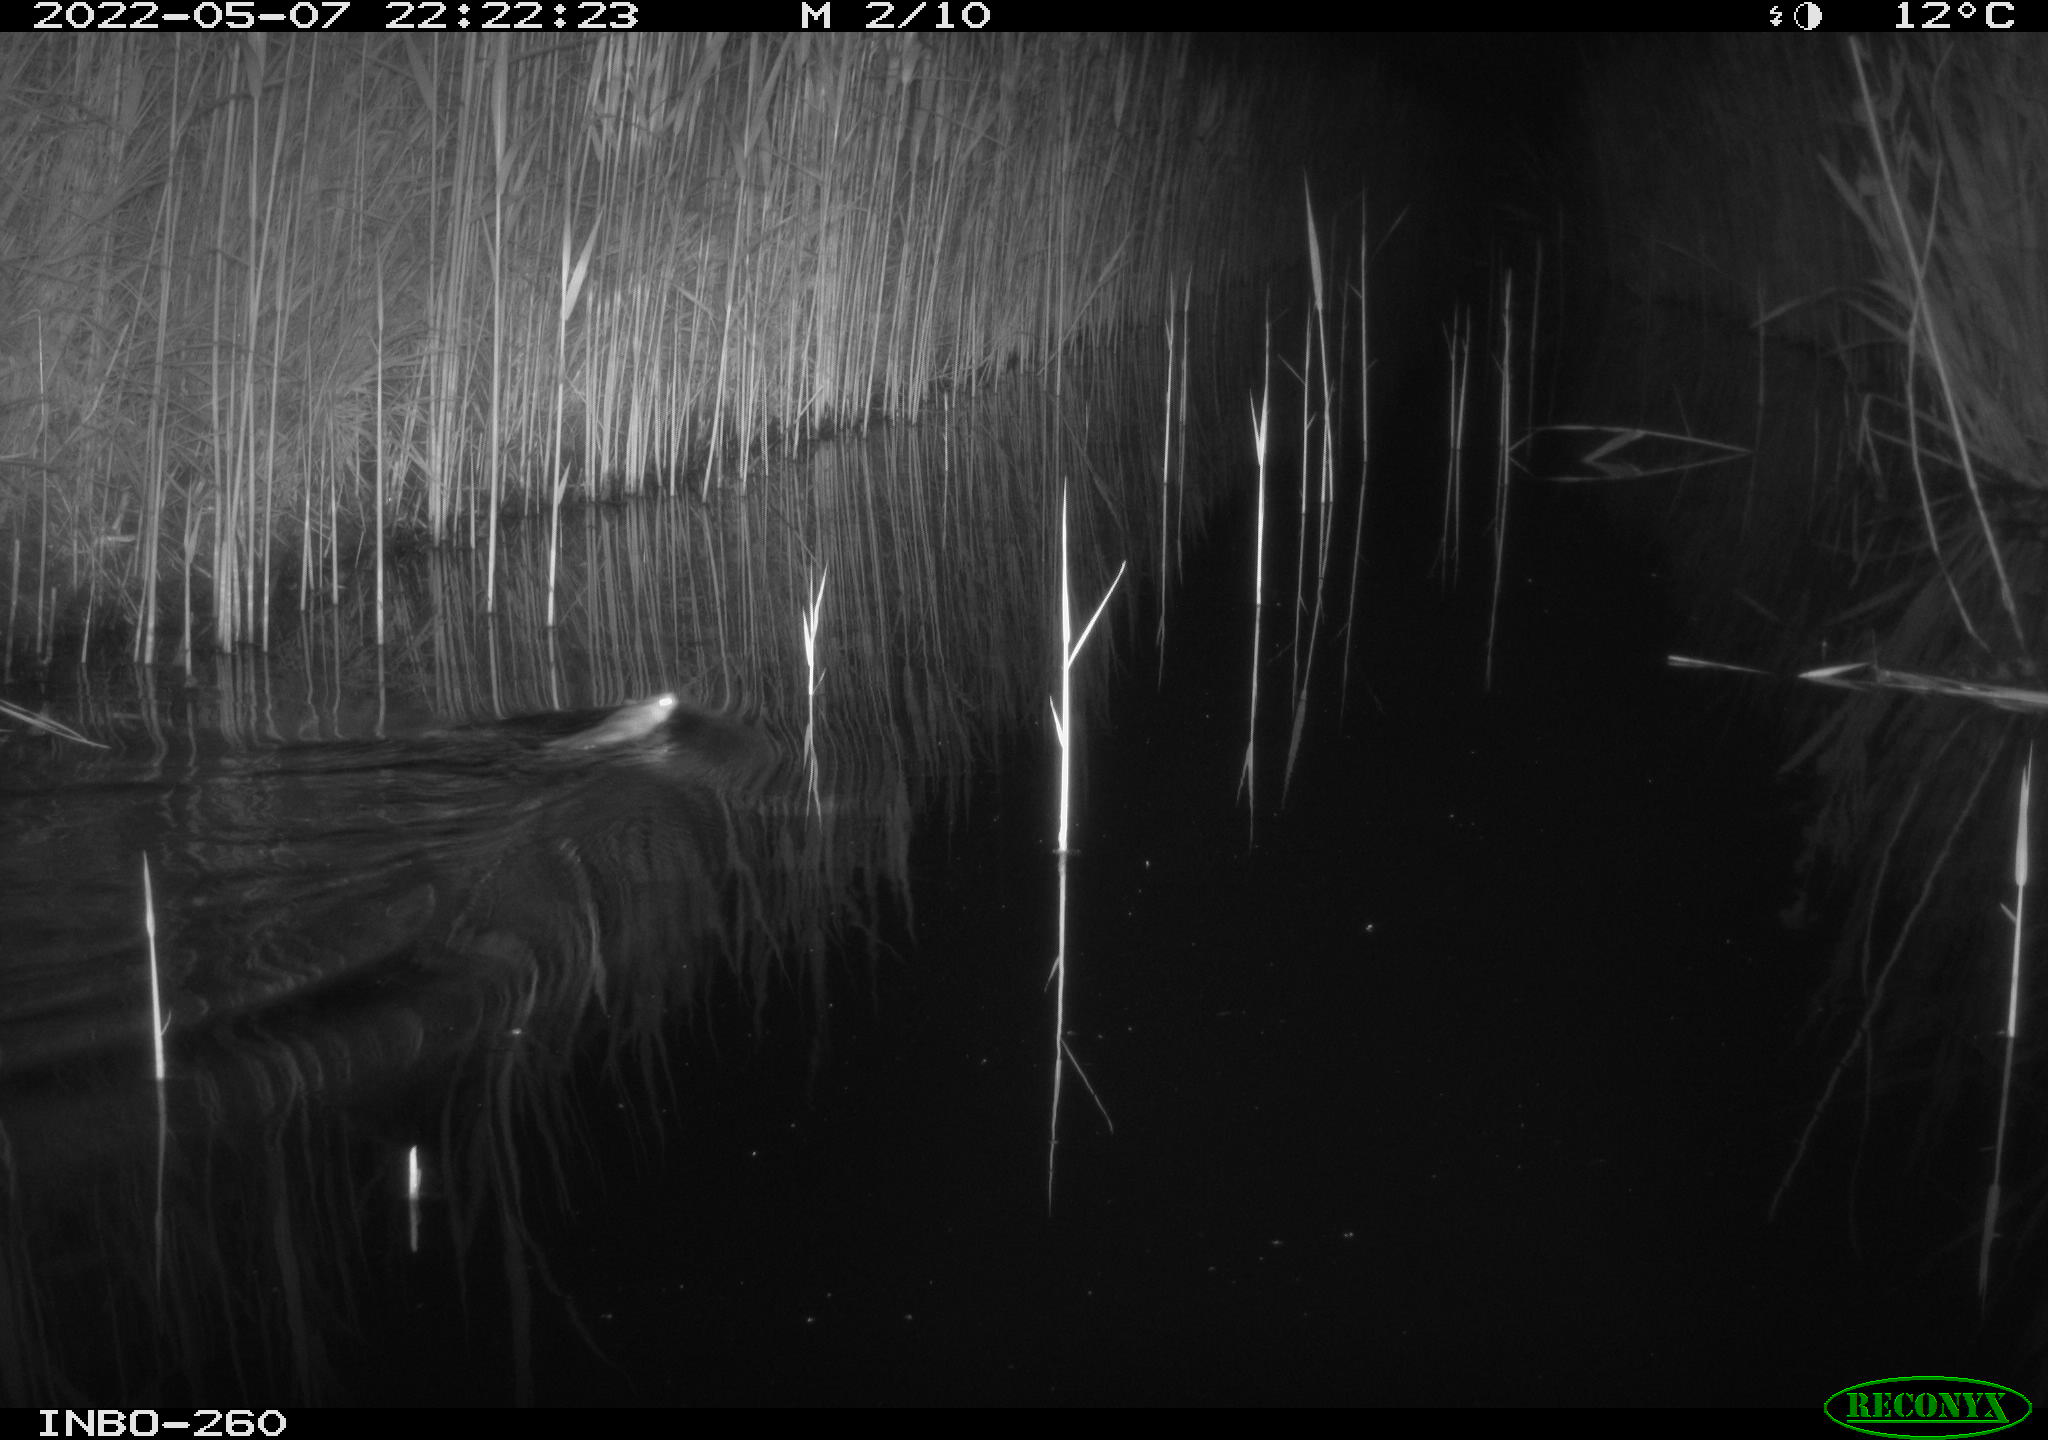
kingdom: Animalia
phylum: Chordata
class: Mammalia
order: Rodentia
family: Muridae
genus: Rattus
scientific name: Rattus norvegicus
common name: Brown rat
